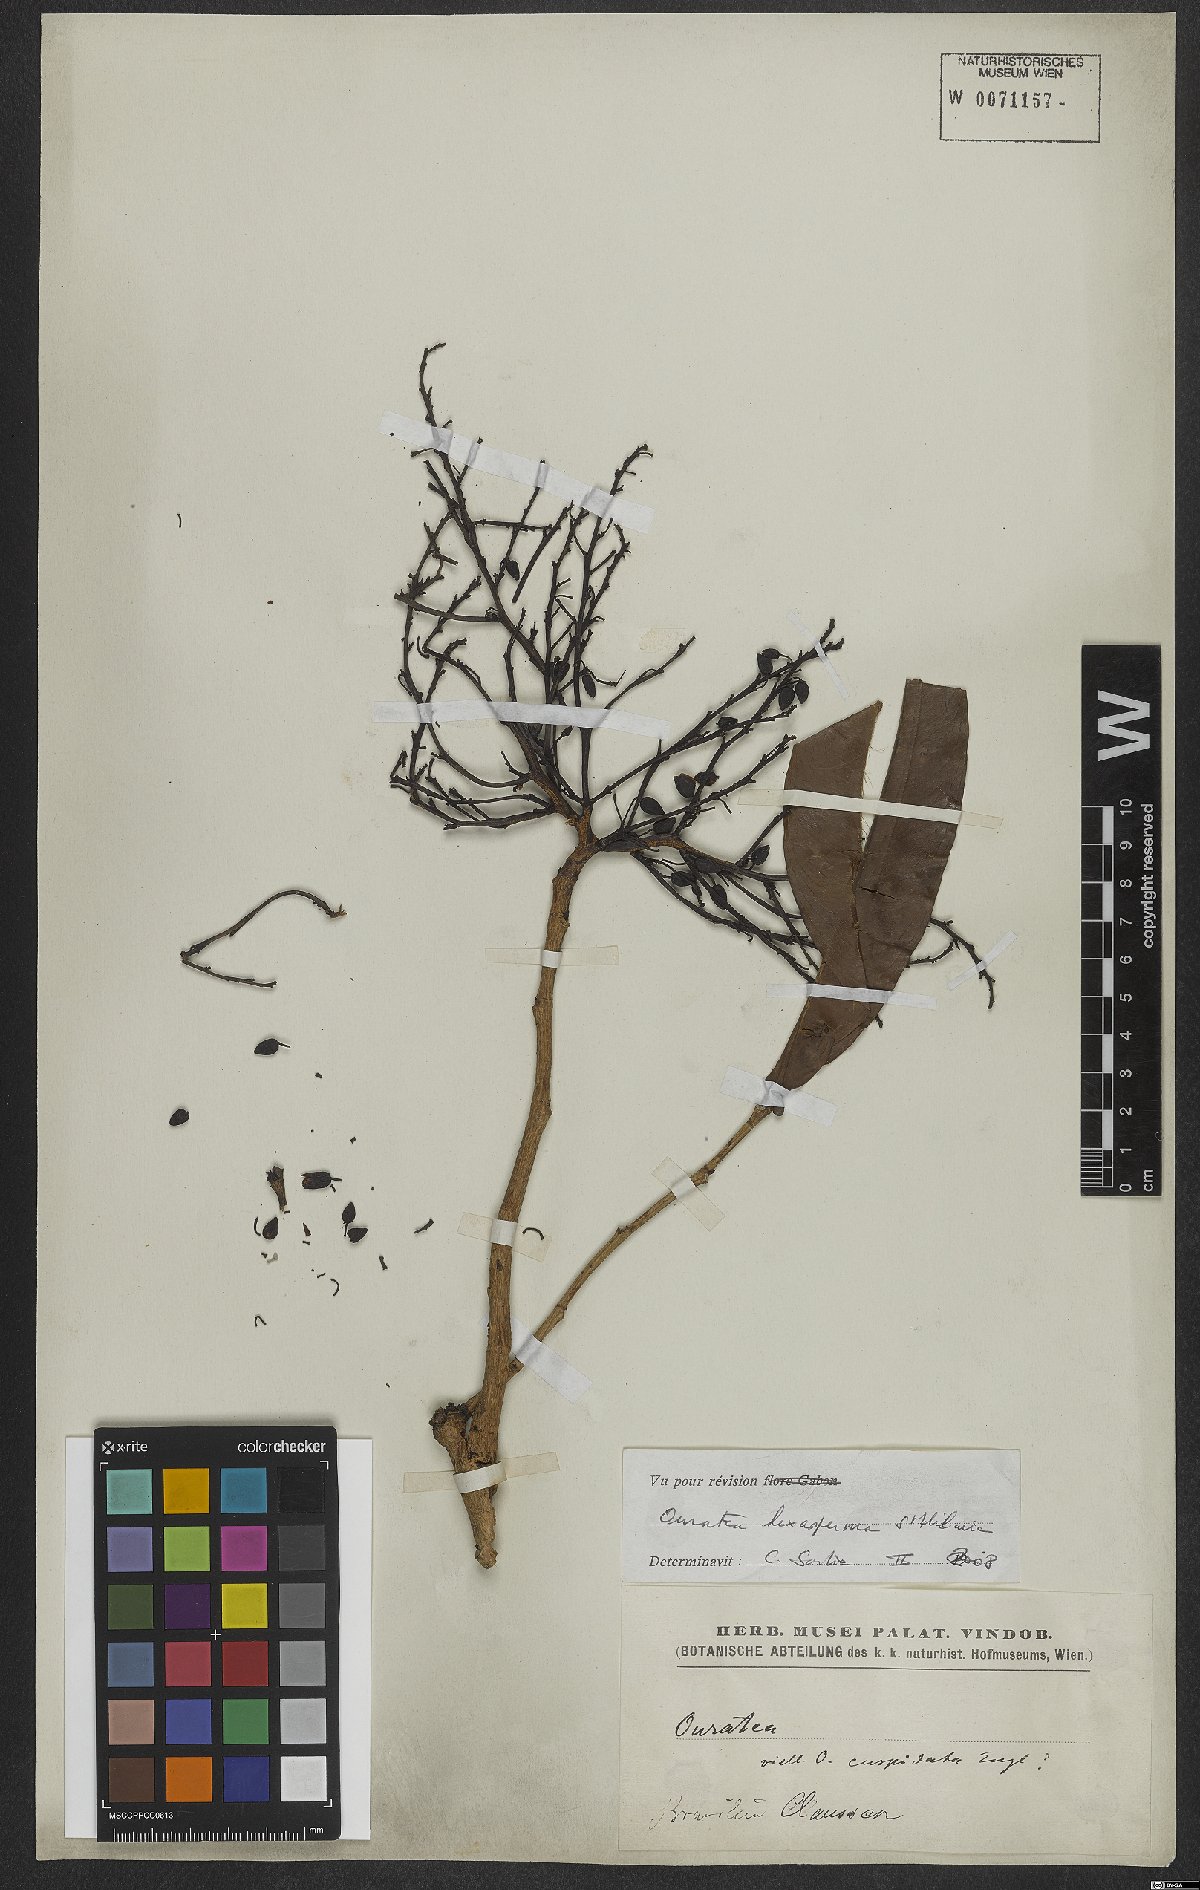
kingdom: Plantae
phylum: Tracheophyta
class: Magnoliopsida
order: Malpighiales
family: Ochnaceae
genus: Ouratea
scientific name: Ouratea hexasperma
